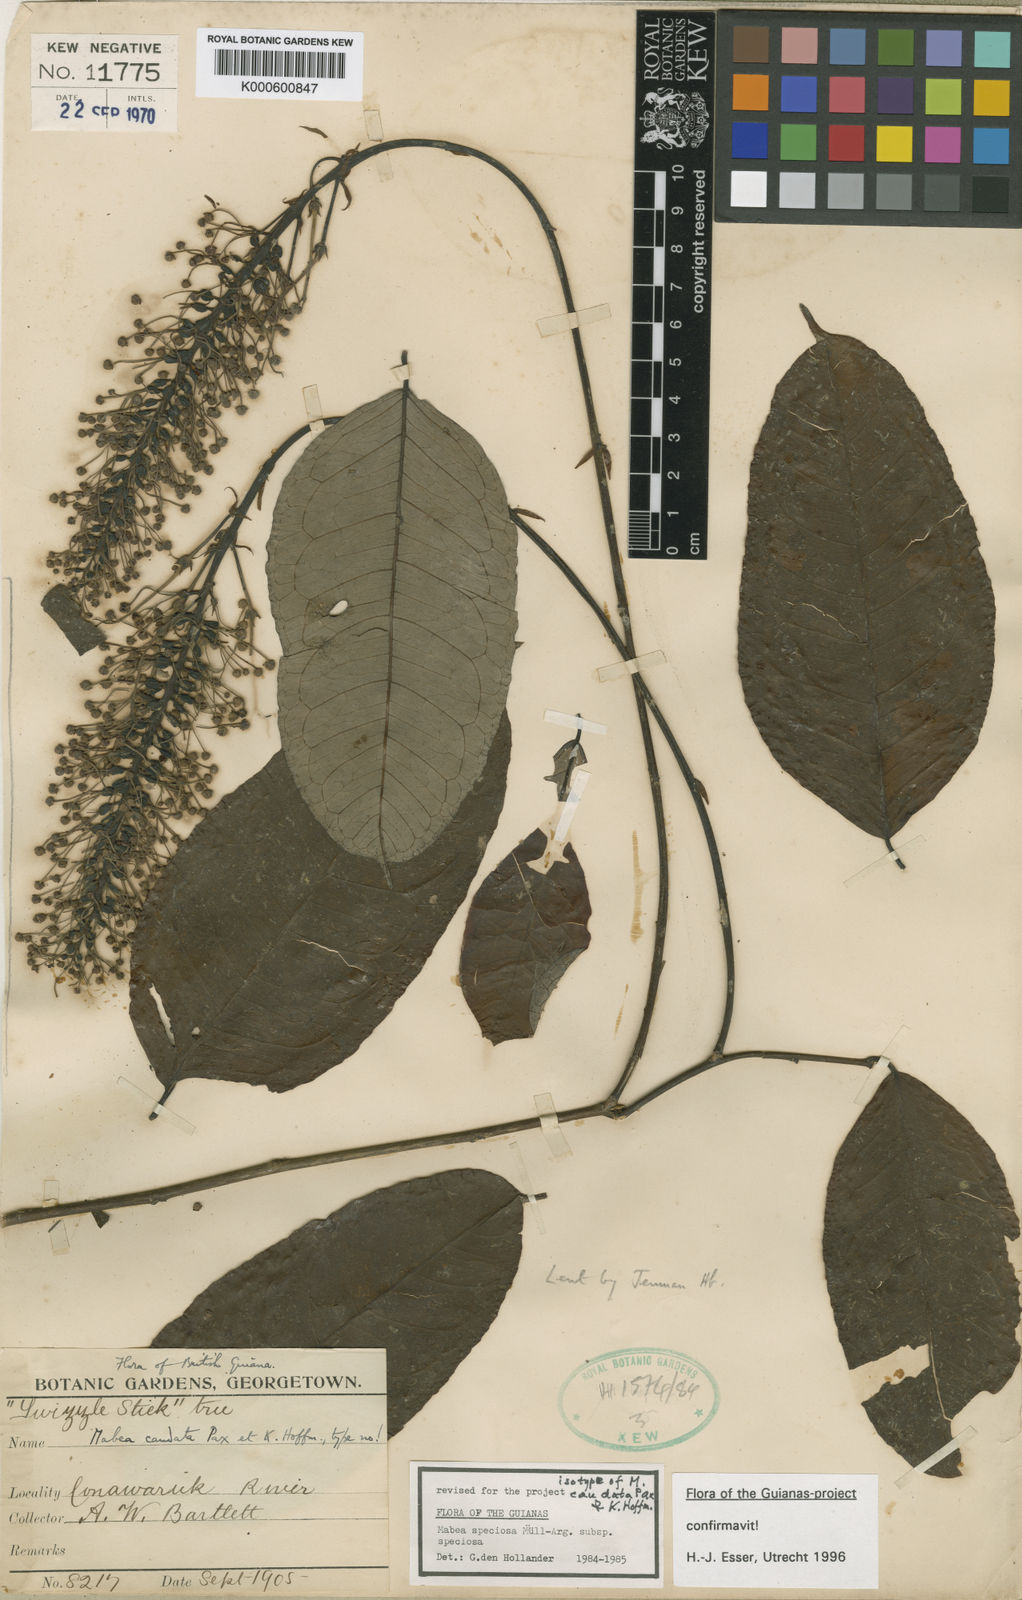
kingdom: Plantae
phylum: Tracheophyta
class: Magnoliopsida
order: Malpighiales
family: Euphorbiaceae
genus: Mabea
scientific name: Mabea
